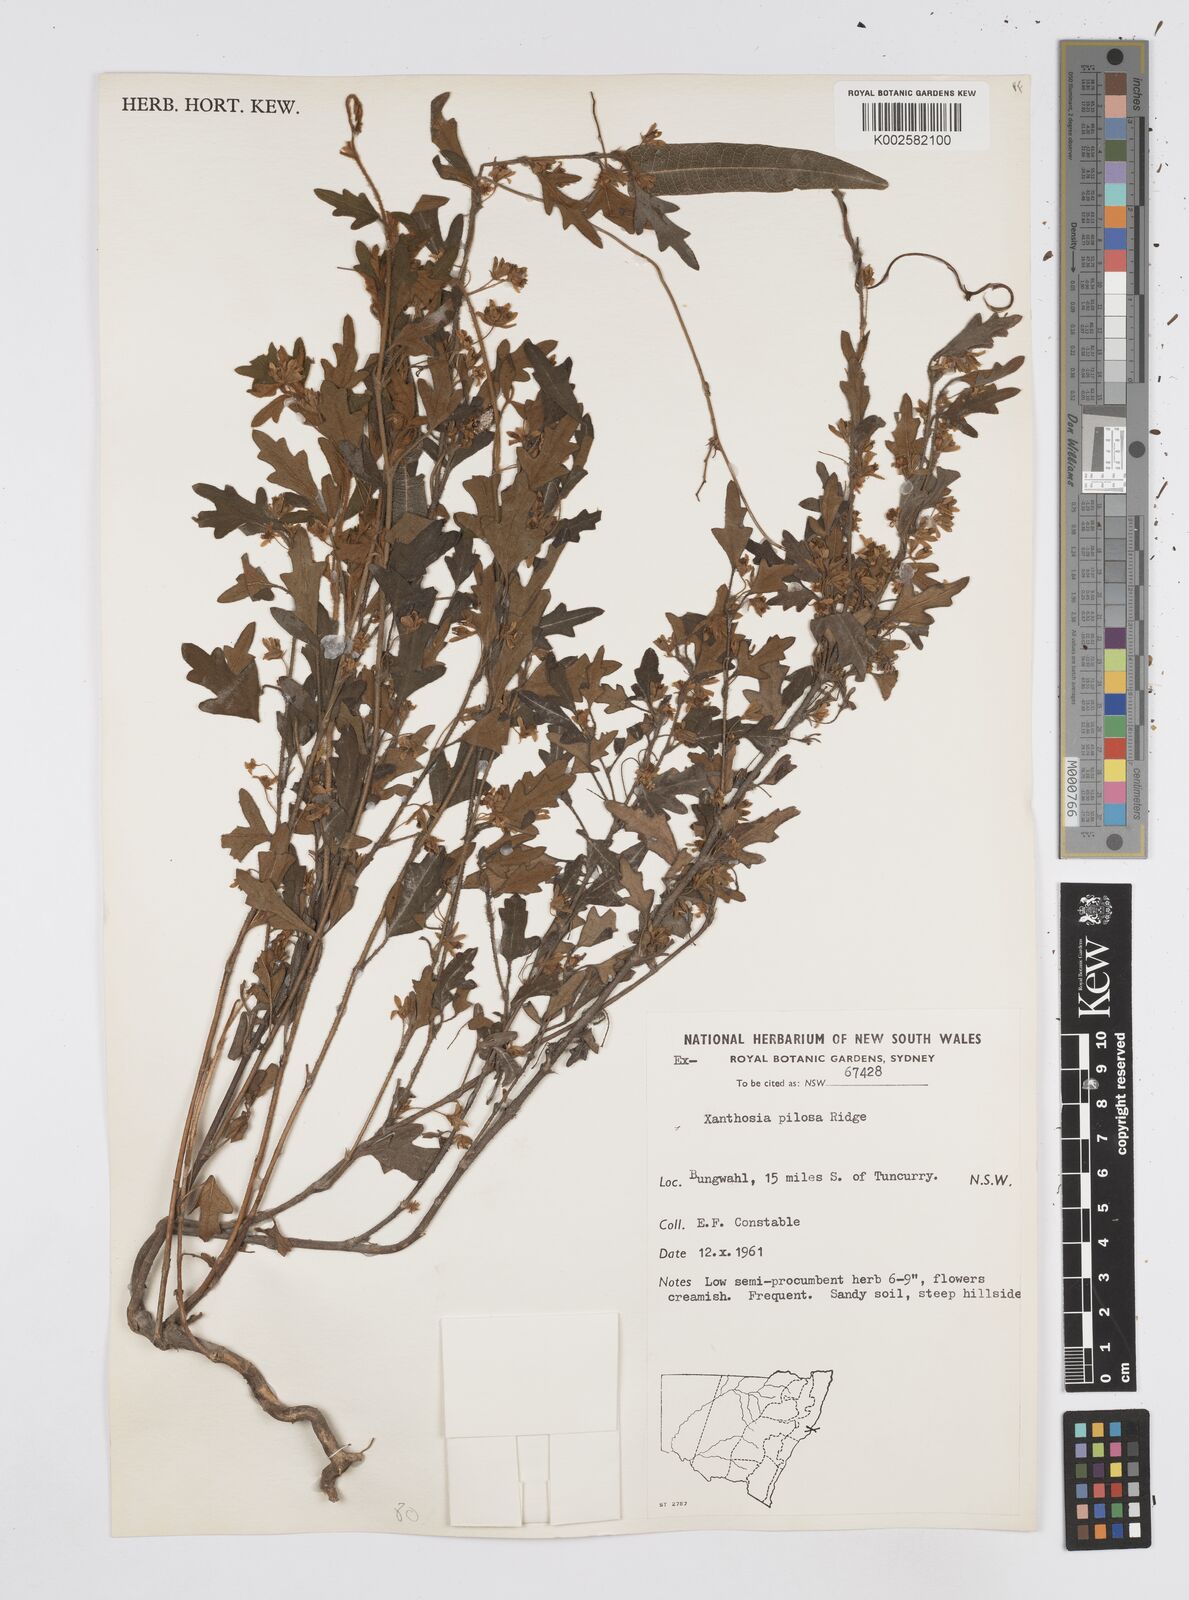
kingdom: Plantae
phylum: Tracheophyta
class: Magnoliopsida
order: Apiales
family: Apiaceae
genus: Xanthosia
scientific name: Xanthosia pilosa
